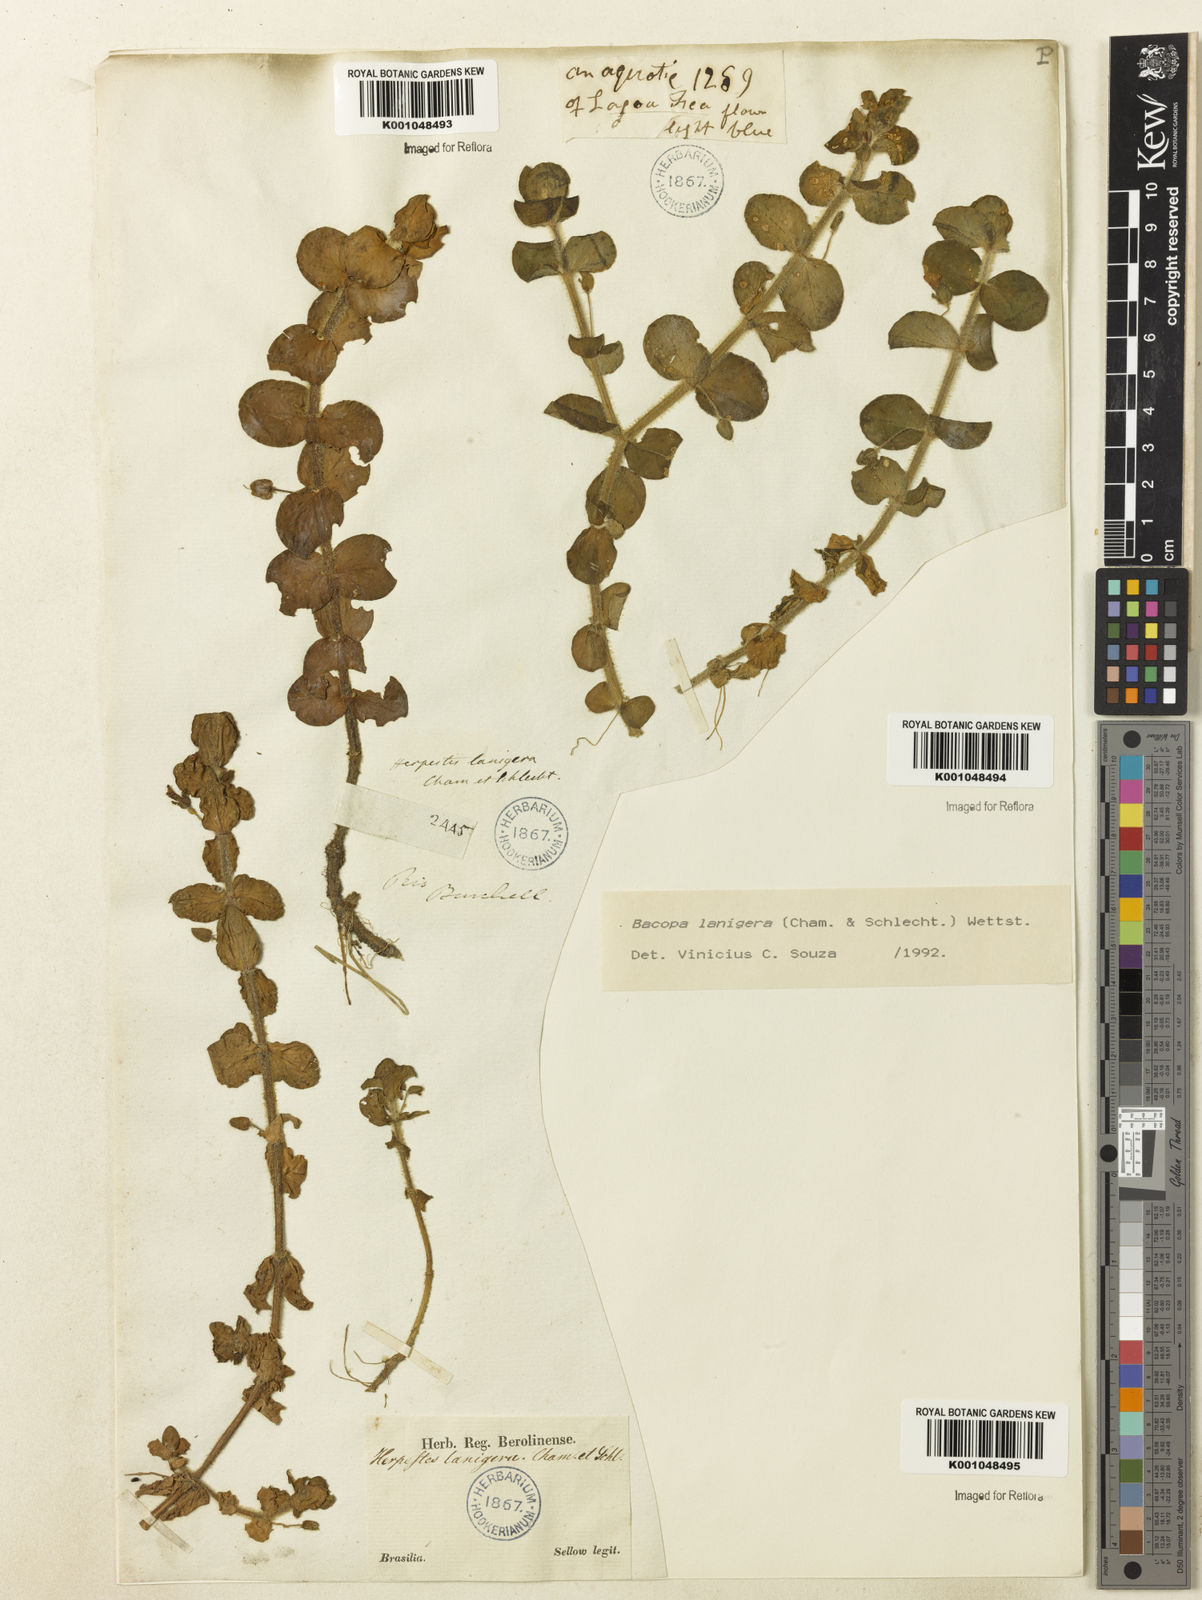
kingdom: Plantae
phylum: Tracheophyta
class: Magnoliopsida
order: Lamiales
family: Plantaginaceae
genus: Bacopa
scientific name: Bacopa lanigera
